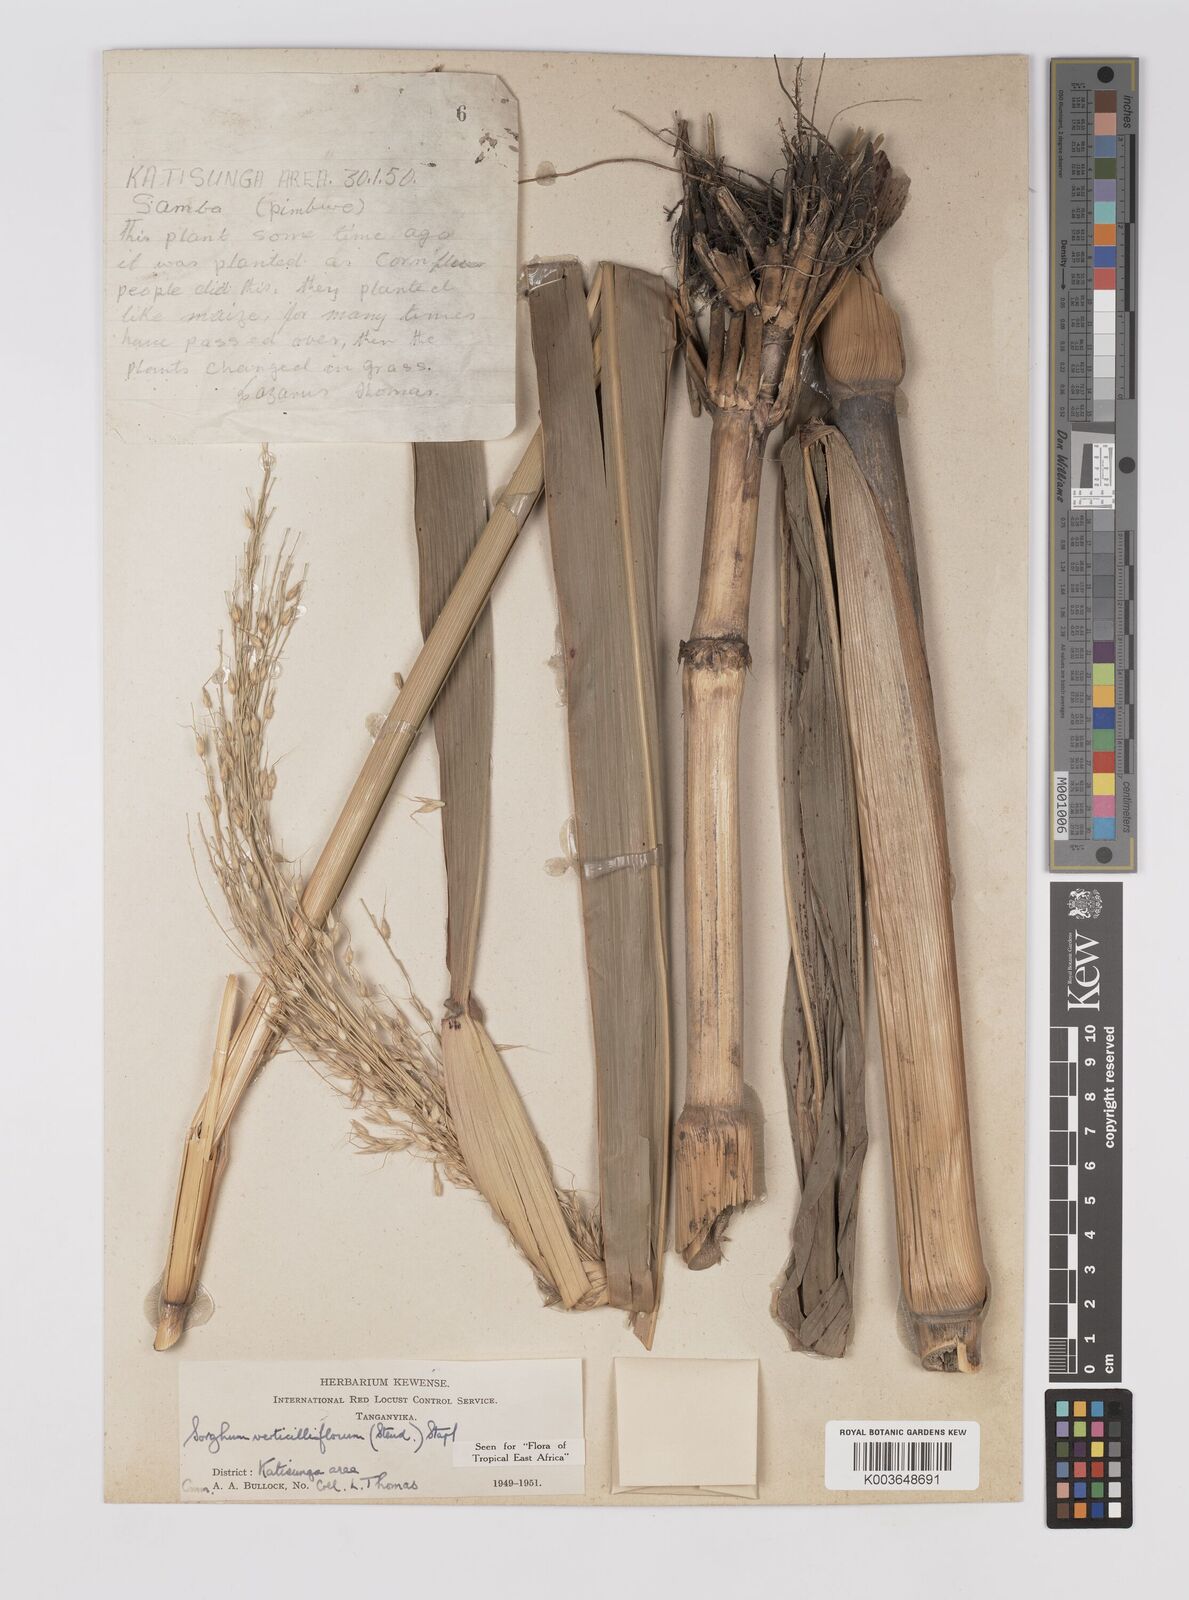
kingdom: Plantae
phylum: Tracheophyta
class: Liliopsida
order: Poales
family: Poaceae
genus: Sorghum
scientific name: Sorghum arundinaceum
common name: Sorghum
